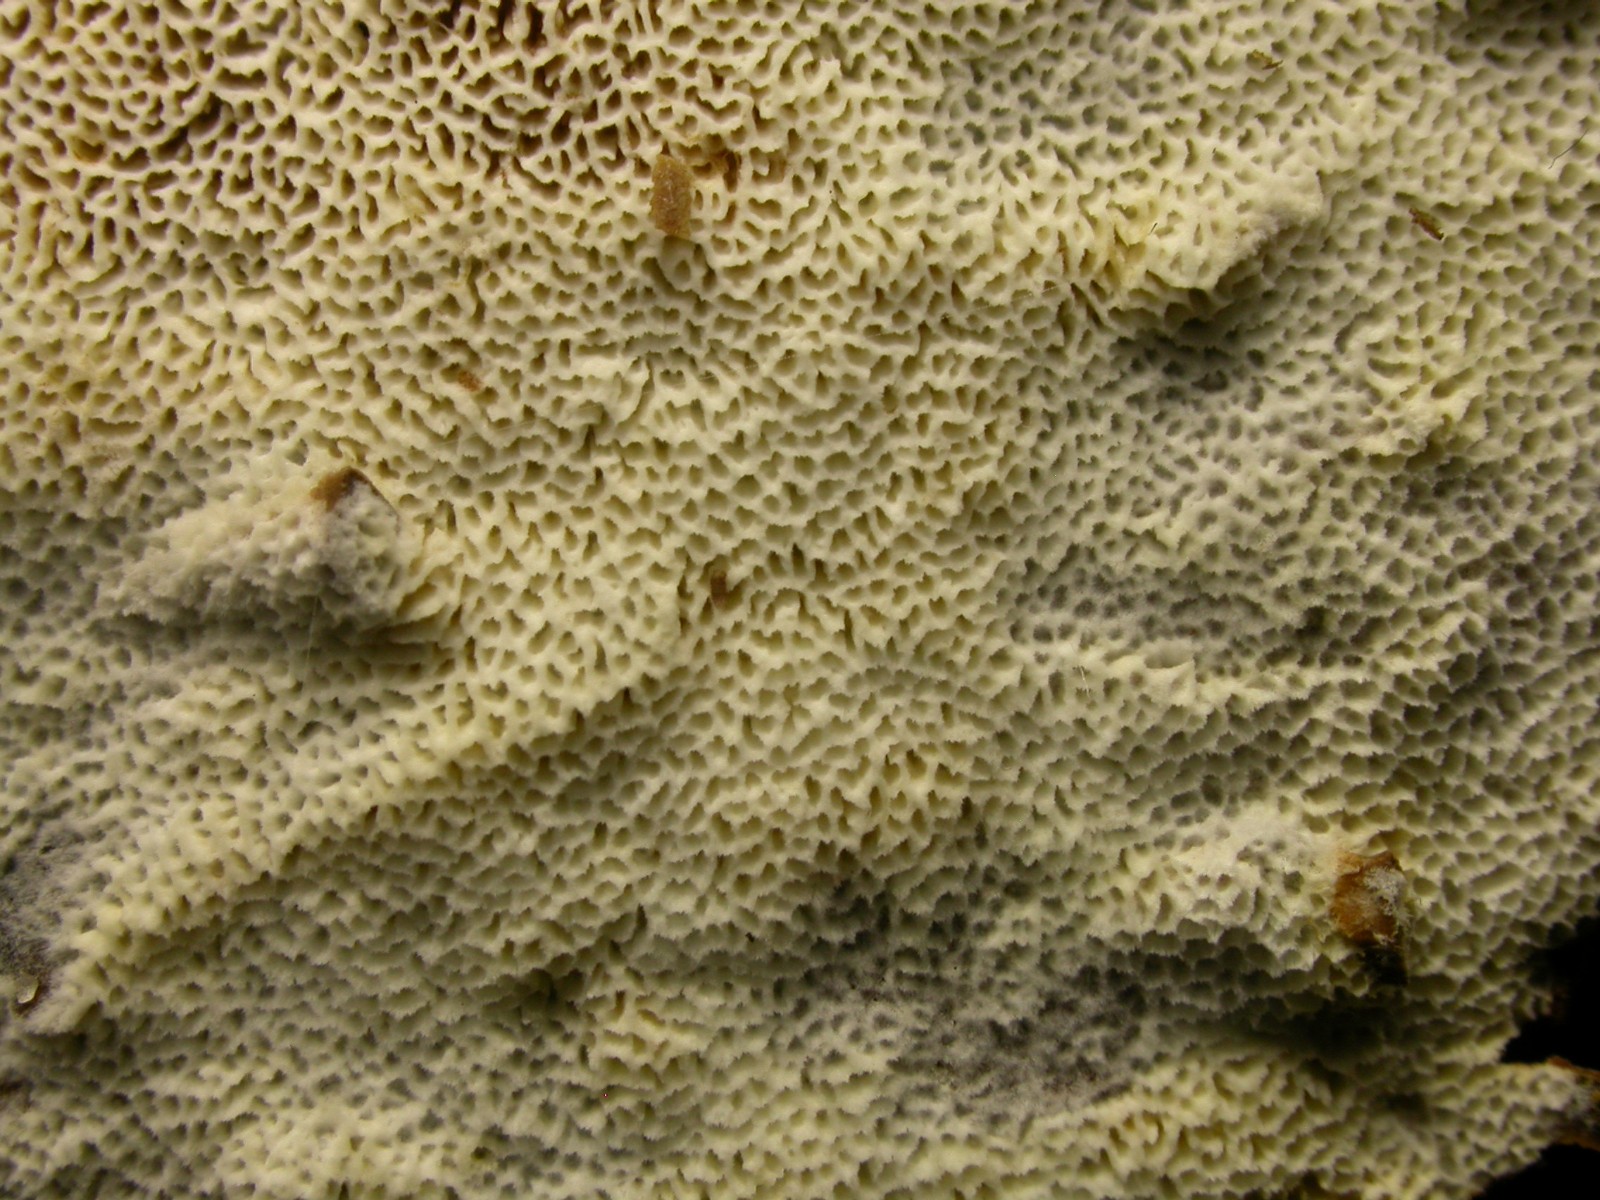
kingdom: Fungi
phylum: Basidiomycota
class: Agaricomycetes
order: Hymenochaetales
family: Schizoporaceae
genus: Xylodon
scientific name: Xylodon subtropicus
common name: labyrint-tandsvamp
